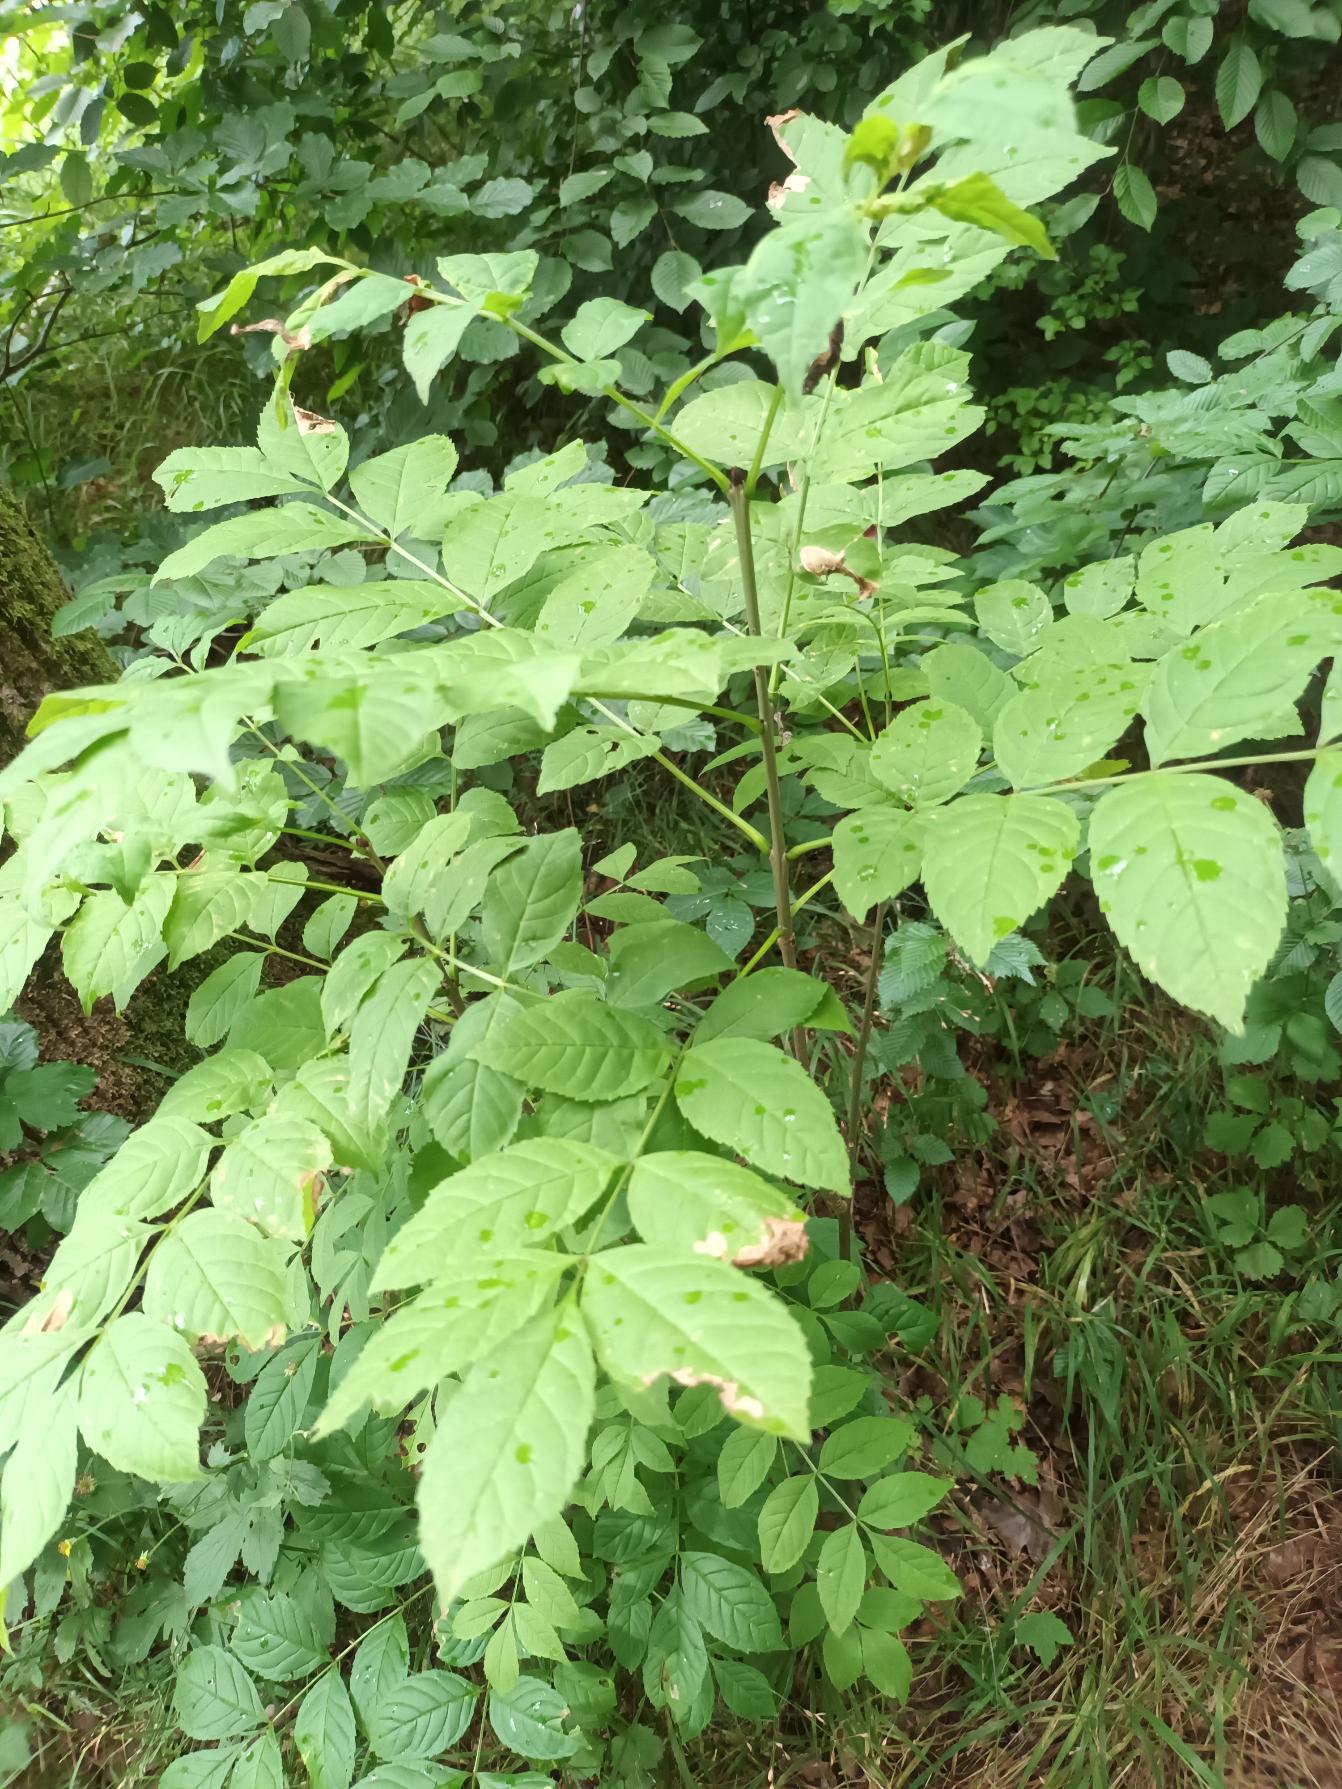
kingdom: Plantae
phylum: Tracheophyta
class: Magnoliopsida
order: Lamiales
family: Oleaceae
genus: Fraxinus
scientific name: Fraxinus excelsior
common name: Ask
